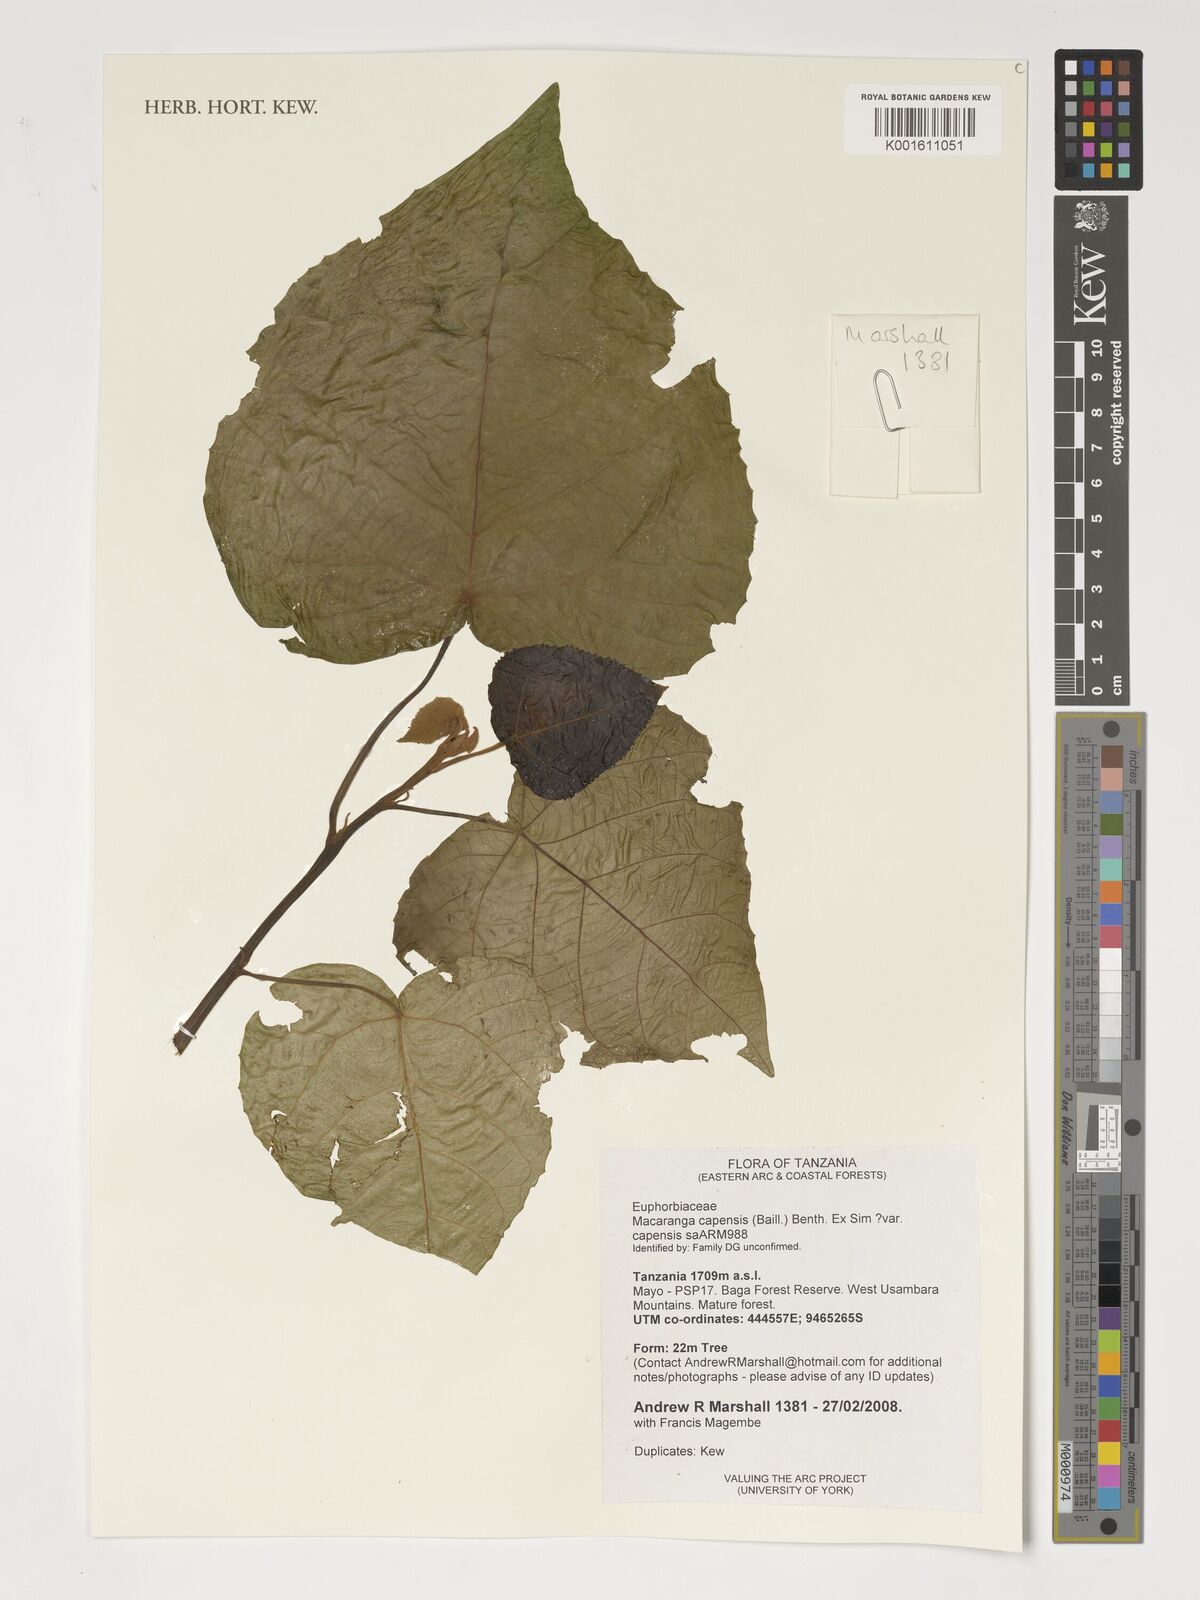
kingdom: Plantae
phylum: Tracheophyta
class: Magnoliopsida
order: Malpighiales
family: Euphorbiaceae
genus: Macaranga
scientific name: Macaranga capensis
